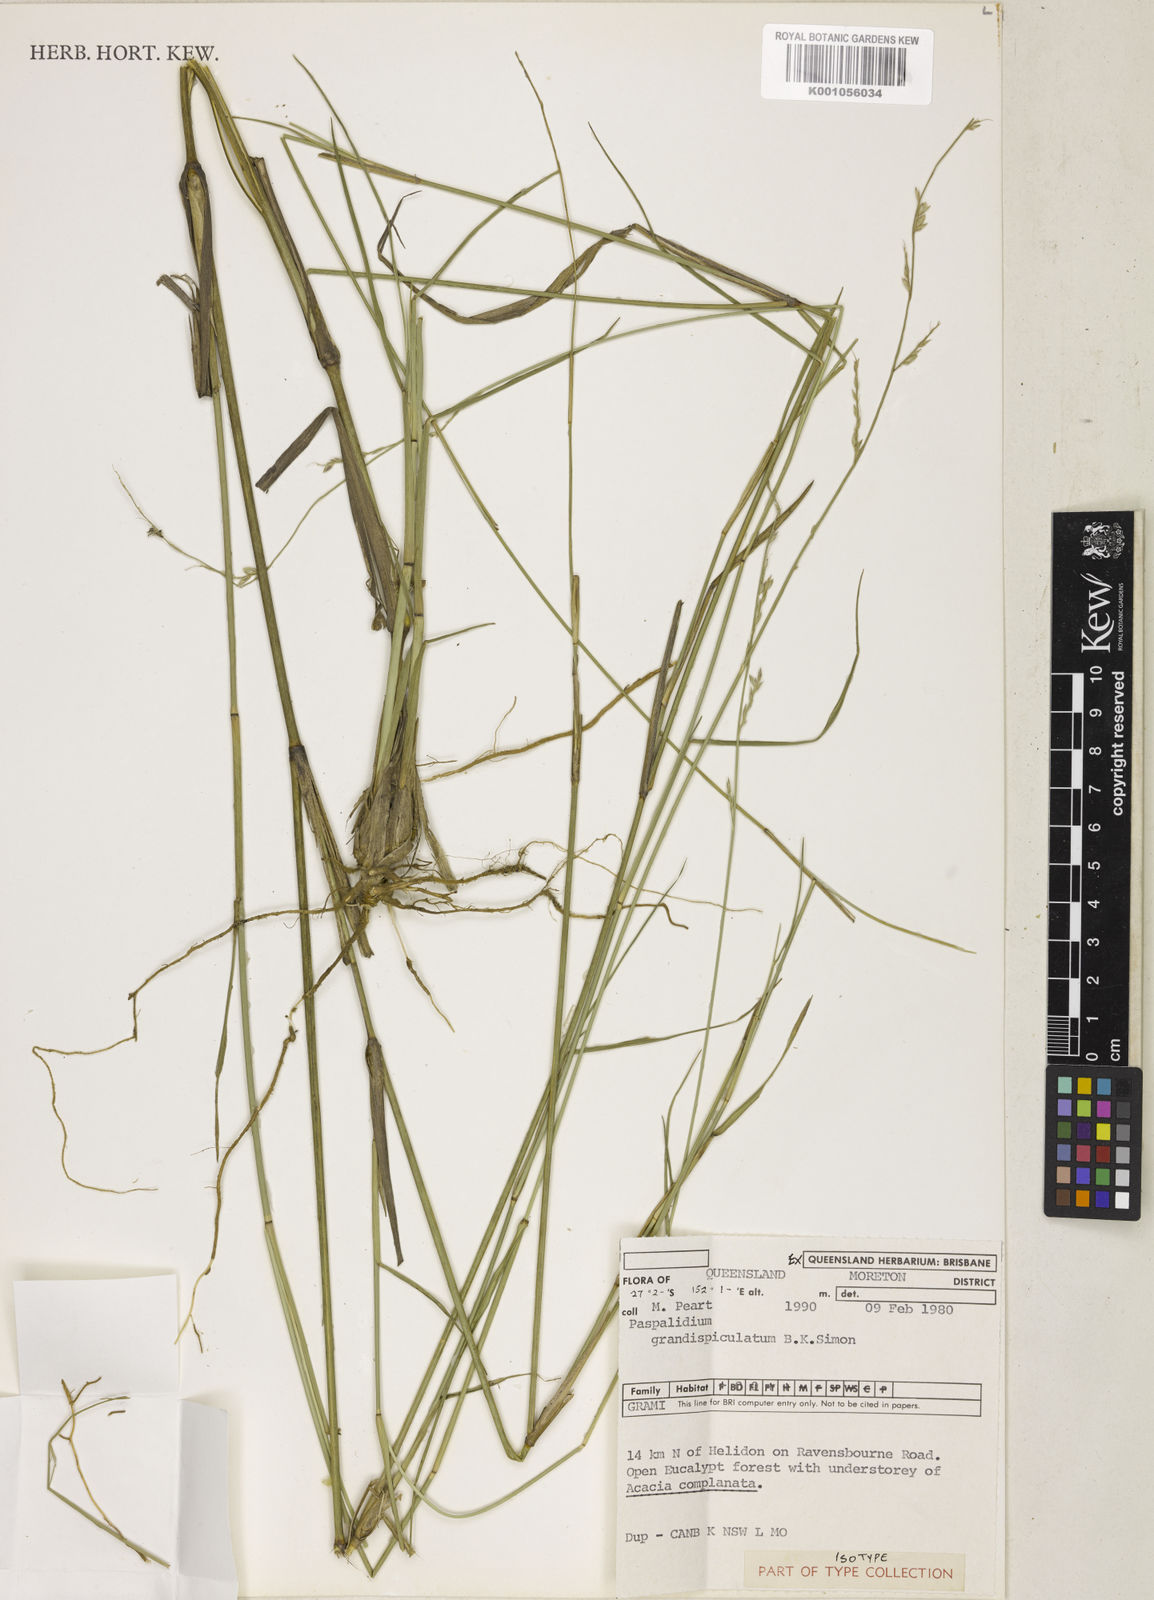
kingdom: Plantae
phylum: Tracheophyta
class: Liliopsida
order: Poales
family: Poaceae
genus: Setaria
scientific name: Setaria grandispiculata
